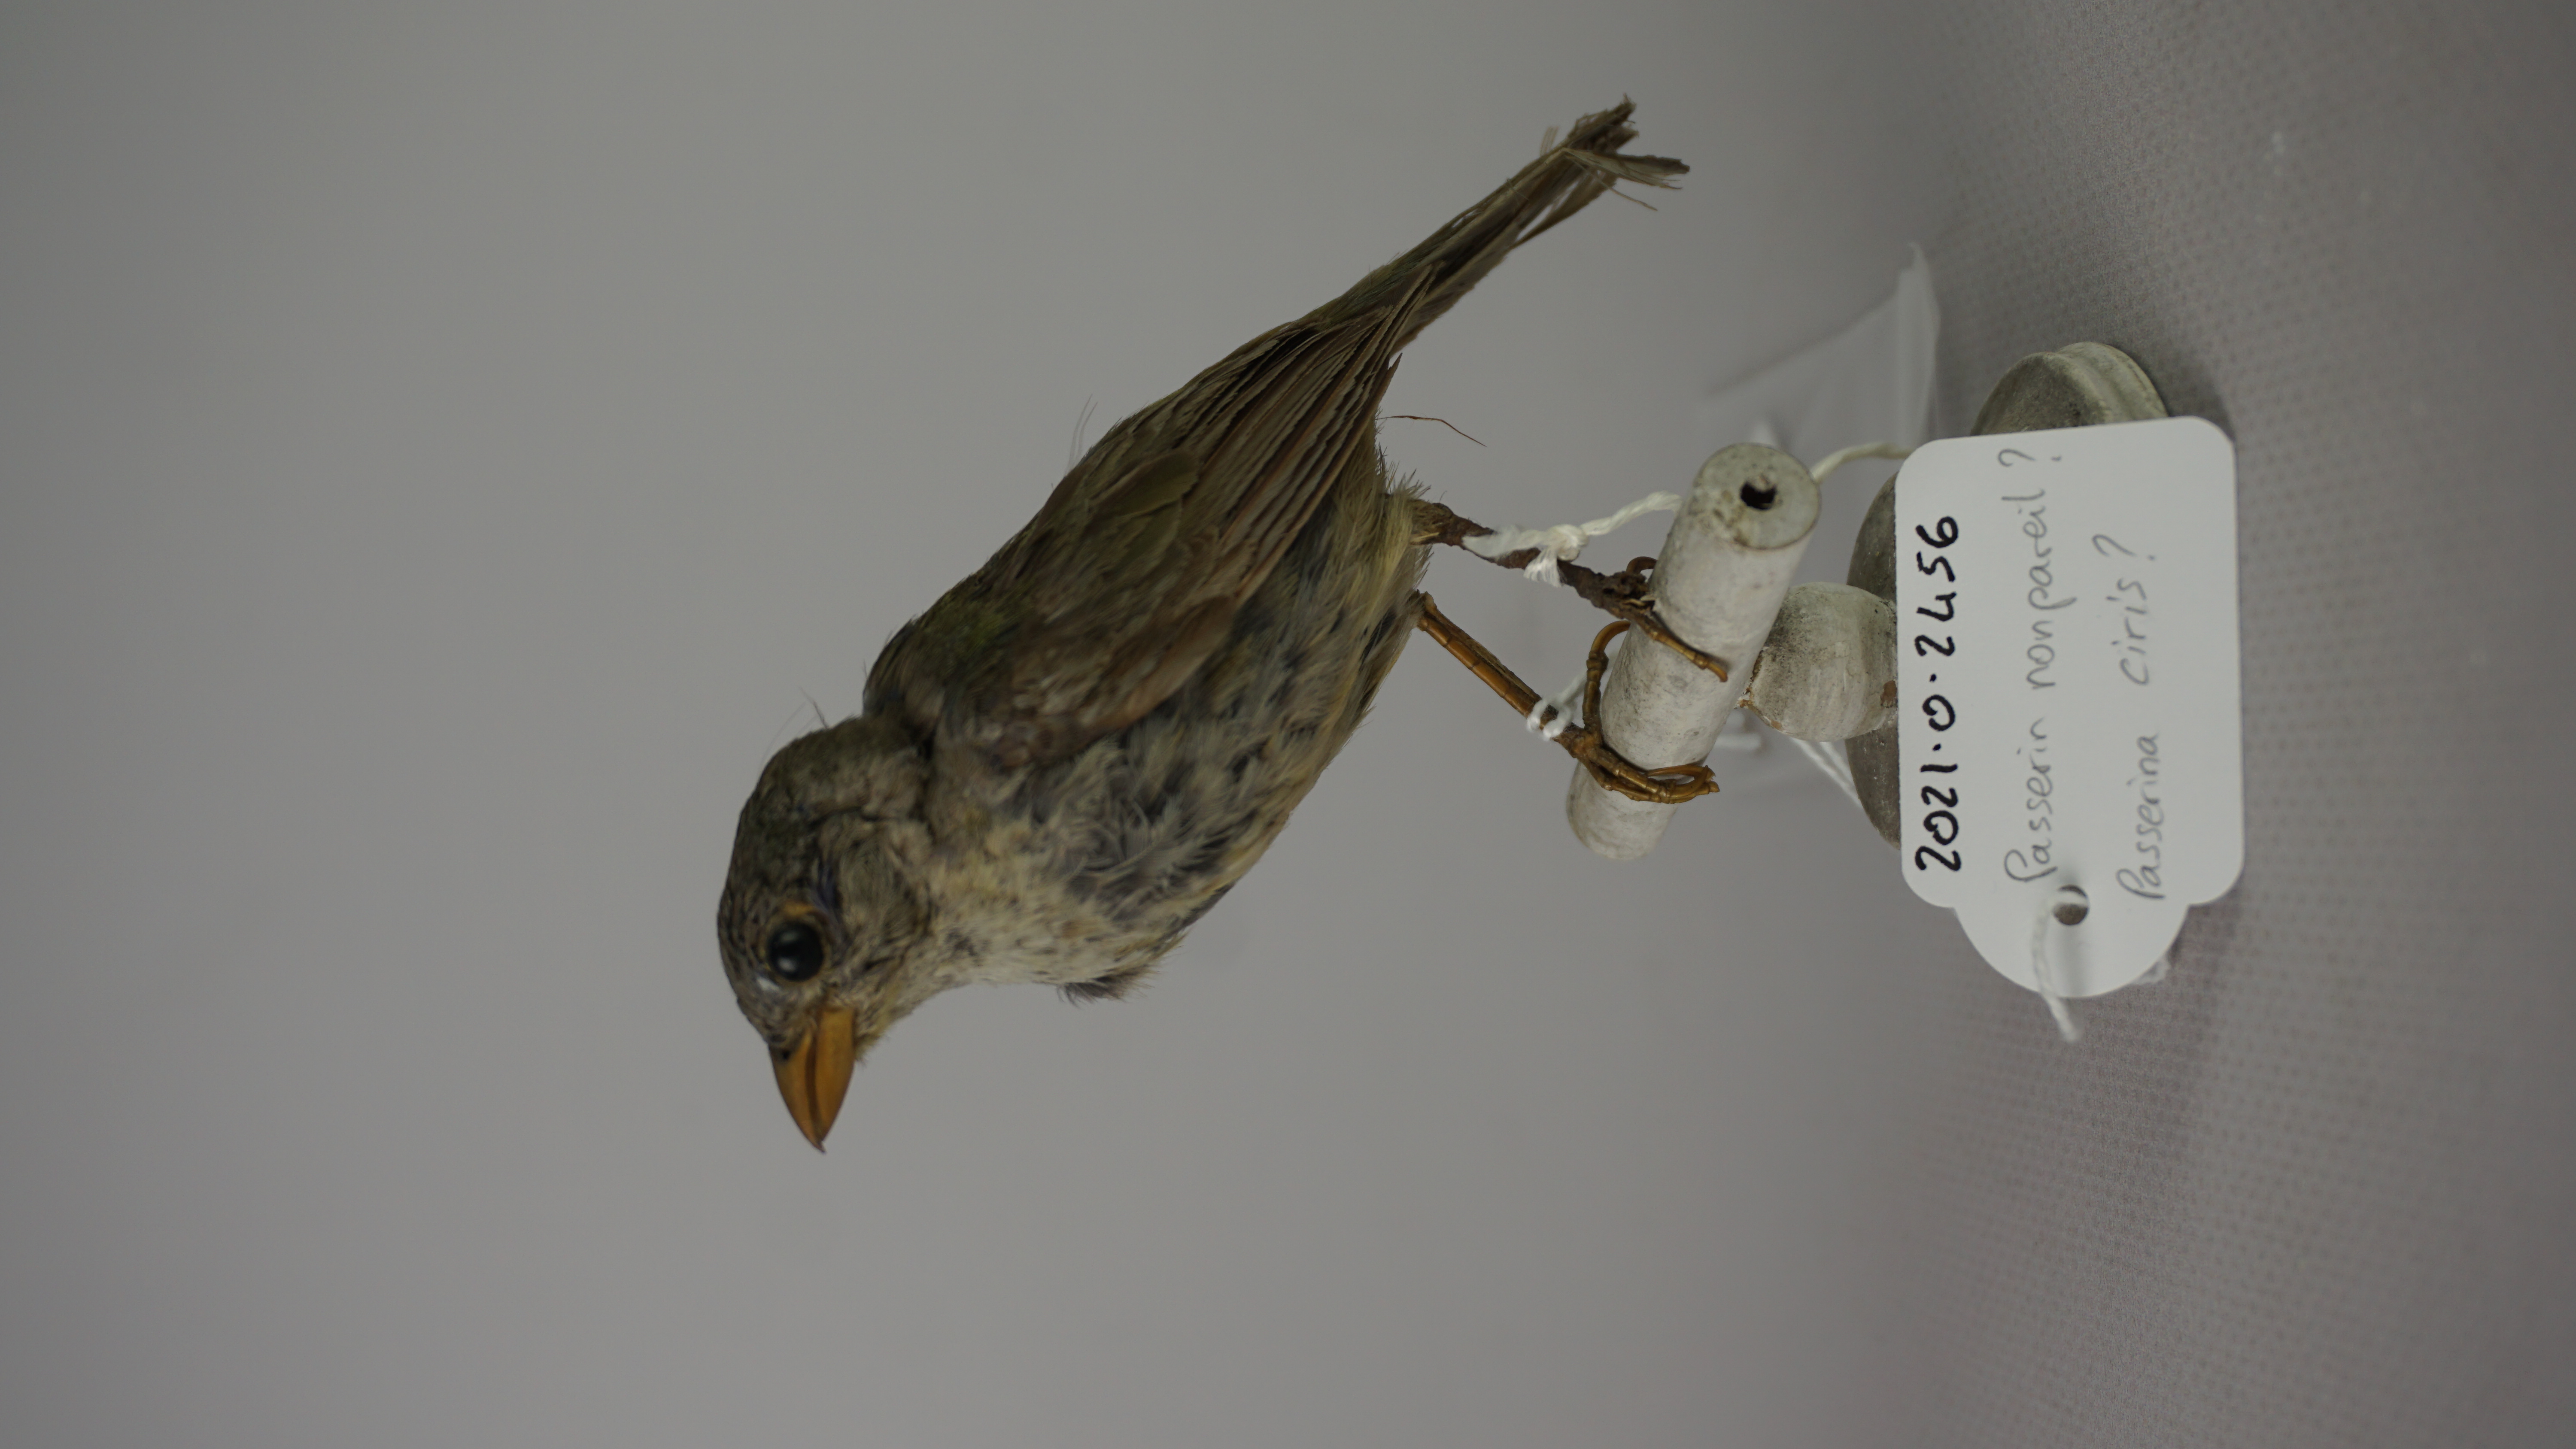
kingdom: Animalia
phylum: Chordata
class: Aves
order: Passeriformes
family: Cardinalidae
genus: Passerina
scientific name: Passerina ciris
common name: Painted bunting
